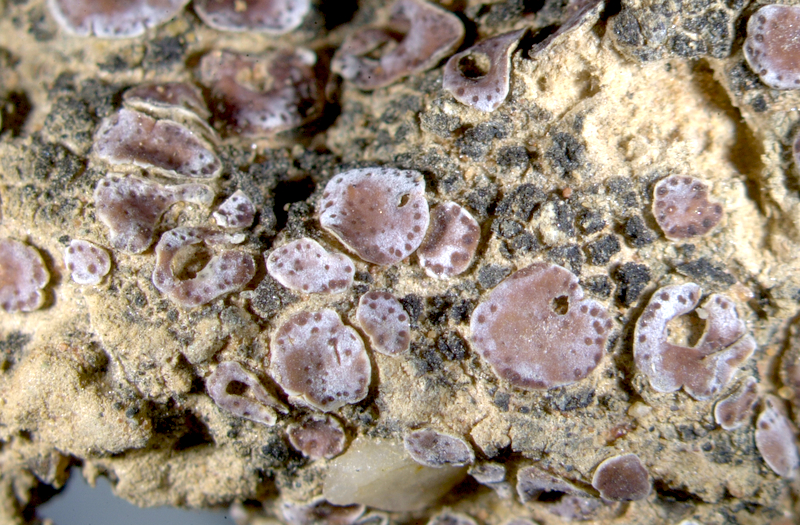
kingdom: Fungi
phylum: Ascomycota
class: Lichinomycetes
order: Lichinales
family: Lichinaceae
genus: Lichinella
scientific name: Lichinella stipatula
